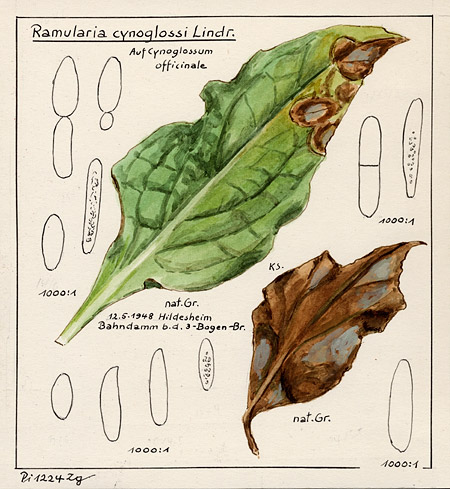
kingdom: Plantae
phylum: Tracheophyta
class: Magnoliopsida
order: Boraginales
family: Boraginaceae
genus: Cynoglossum
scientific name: Cynoglossum officinale
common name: Hound's-tongue
